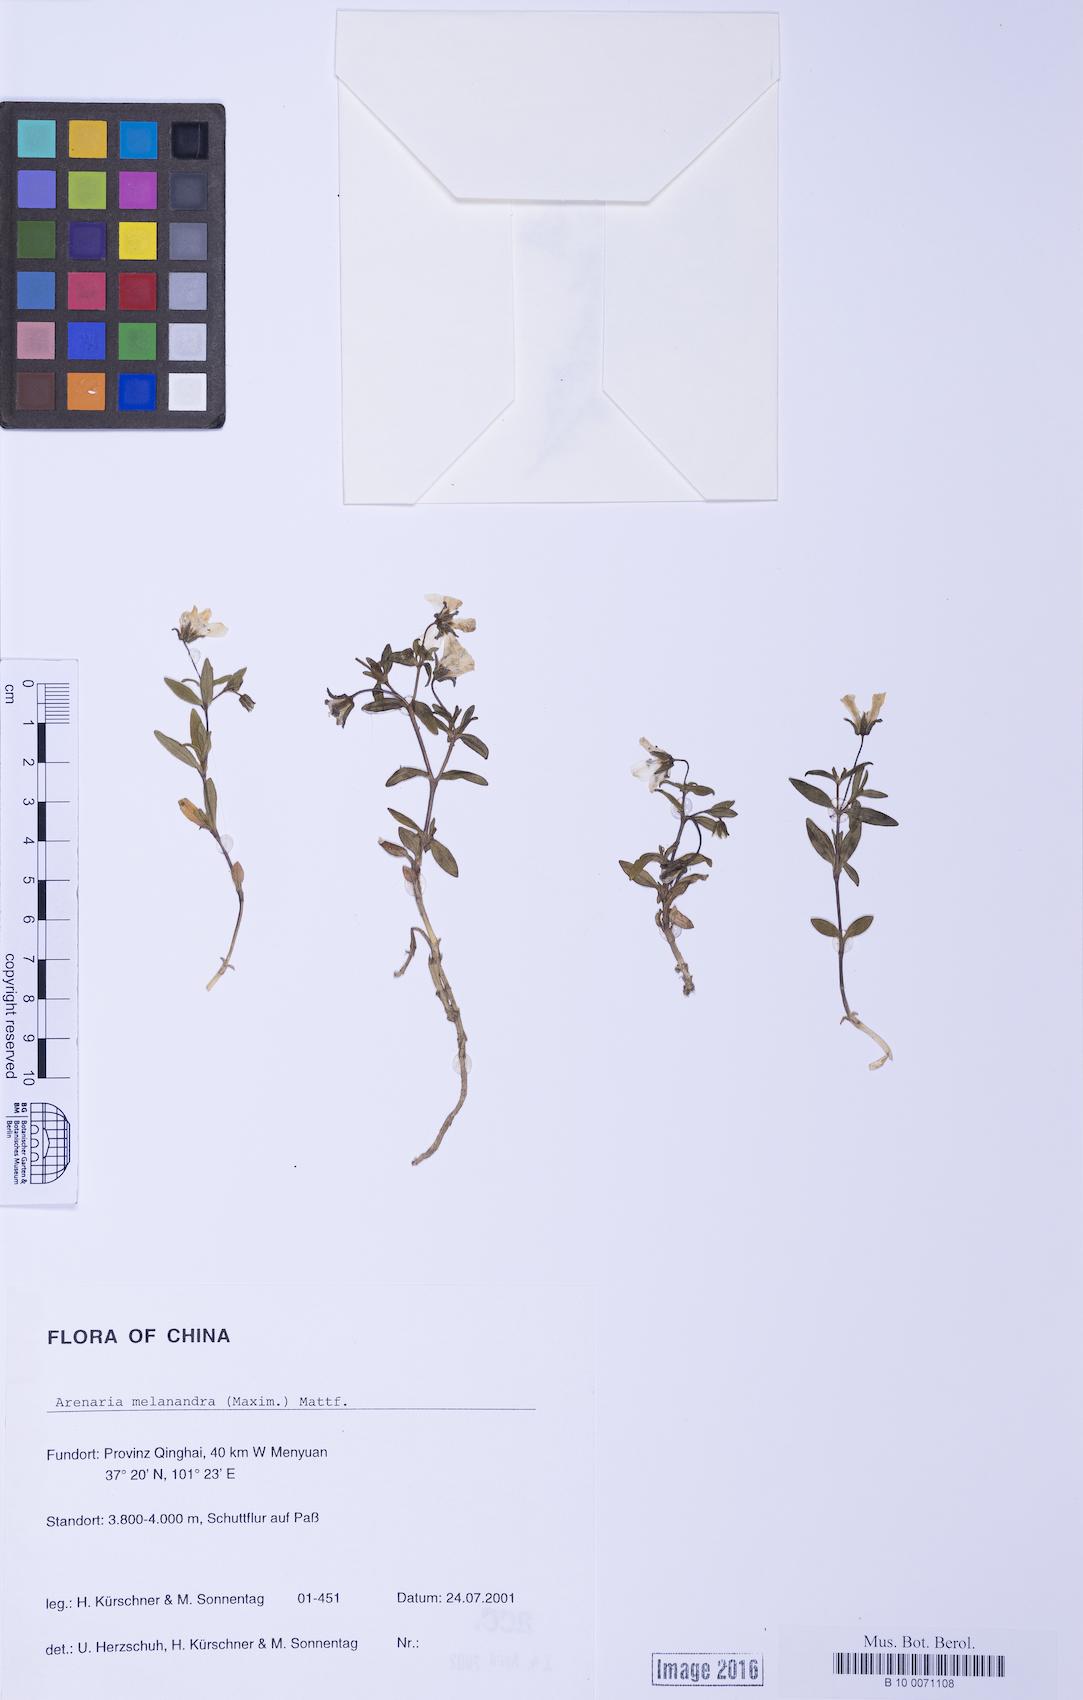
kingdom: Plantae
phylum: Tracheophyta
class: Magnoliopsida
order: Caryophyllales
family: Caryophyllaceae
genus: Odontostemma
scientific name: Odontostemma melanandrum
